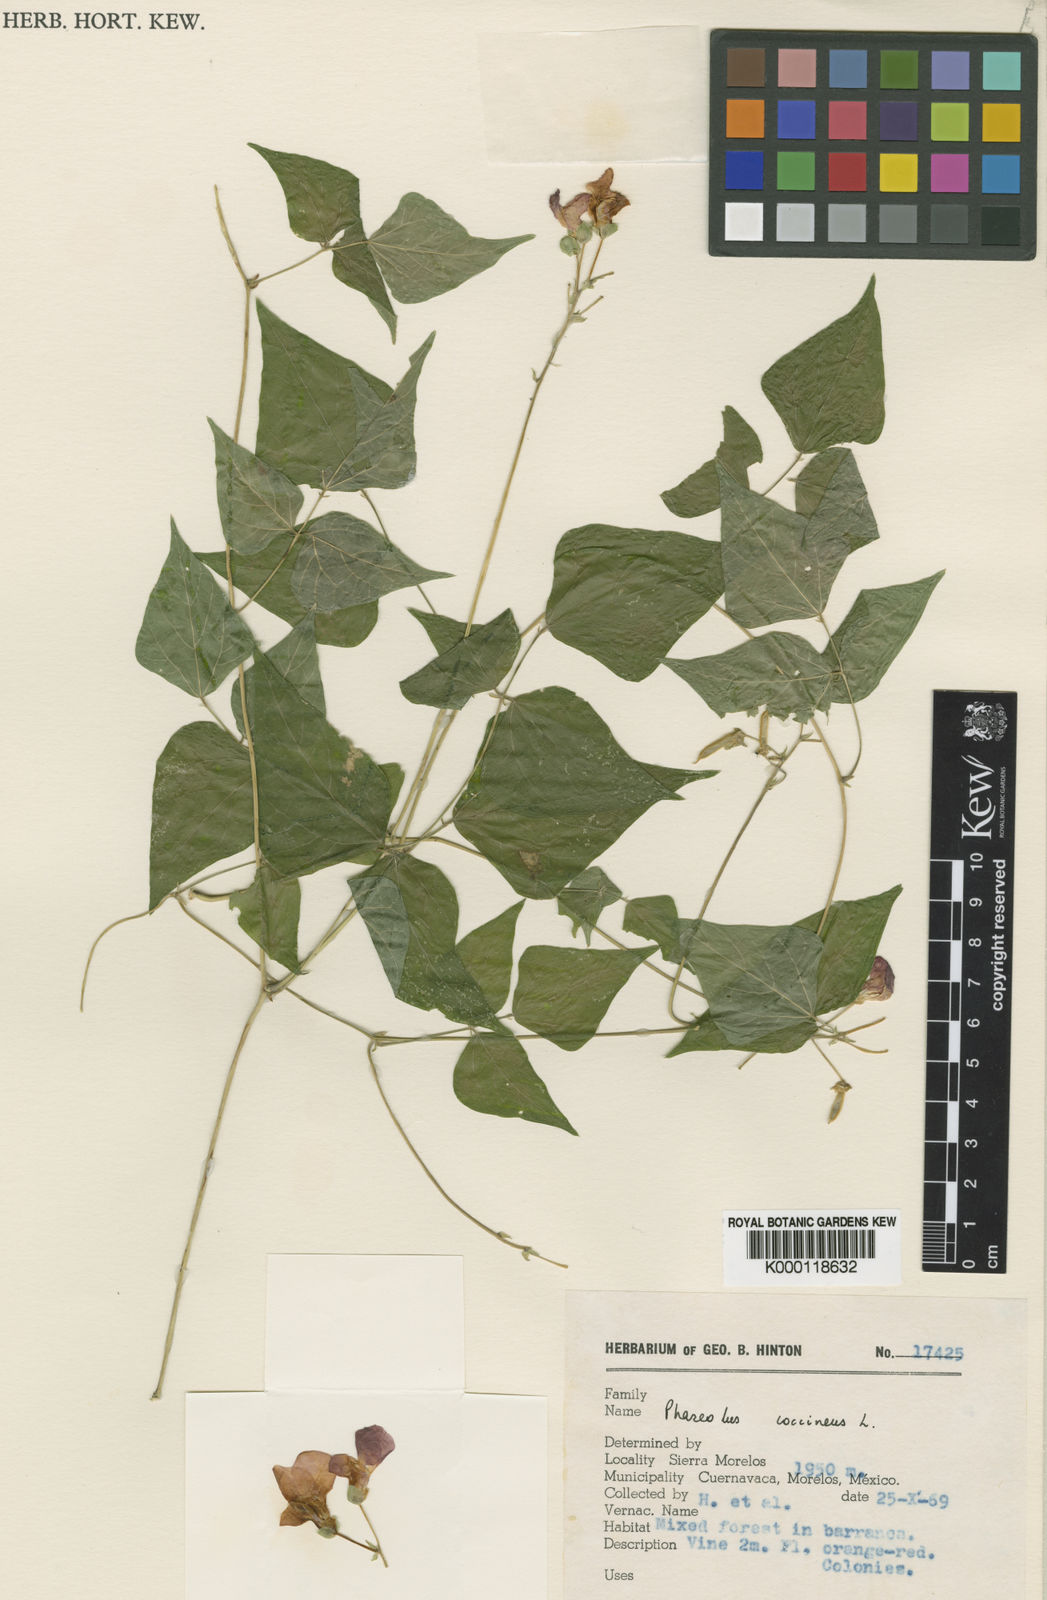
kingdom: Plantae
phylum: Tracheophyta
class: Magnoliopsida
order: Fabales
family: Fabaceae
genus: Phaseolus
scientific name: Phaseolus coccineus
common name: Runner bean
